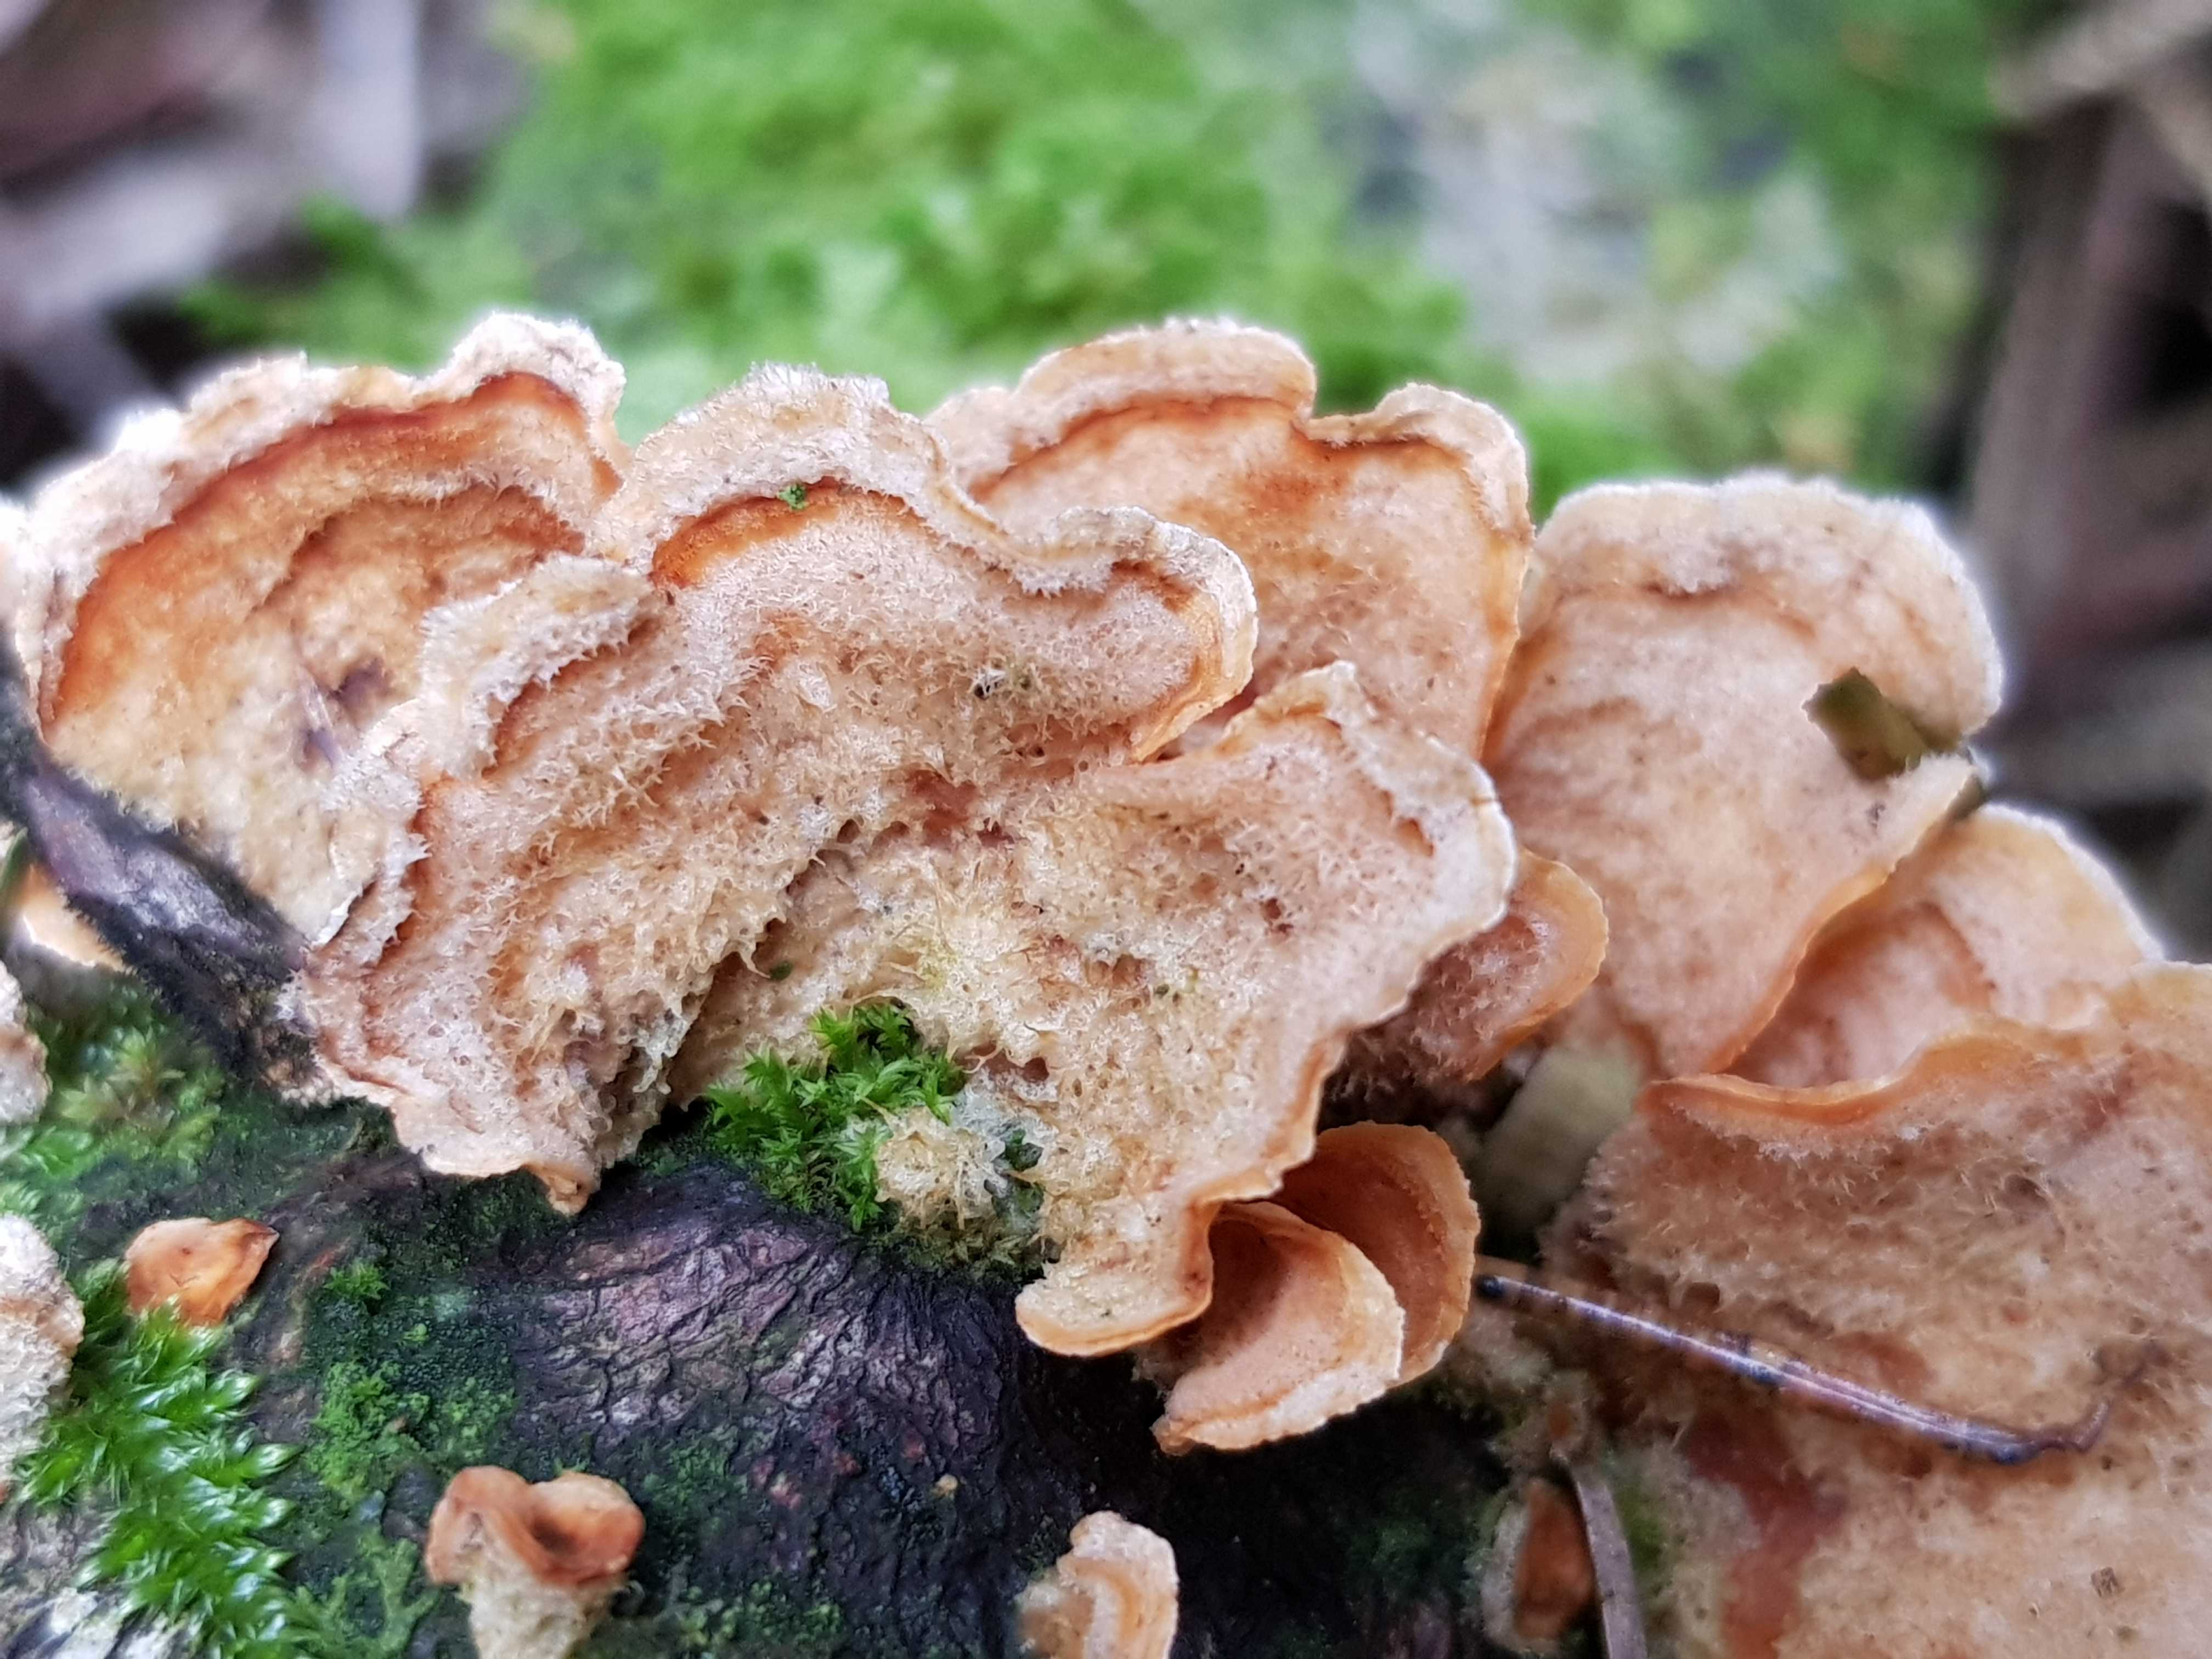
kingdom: Fungi
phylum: Basidiomycota
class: Agaricomycetes
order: Russulales
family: Stereaceae
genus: Stereum
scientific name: Stereum hirsutum
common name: håret lædersvamp
